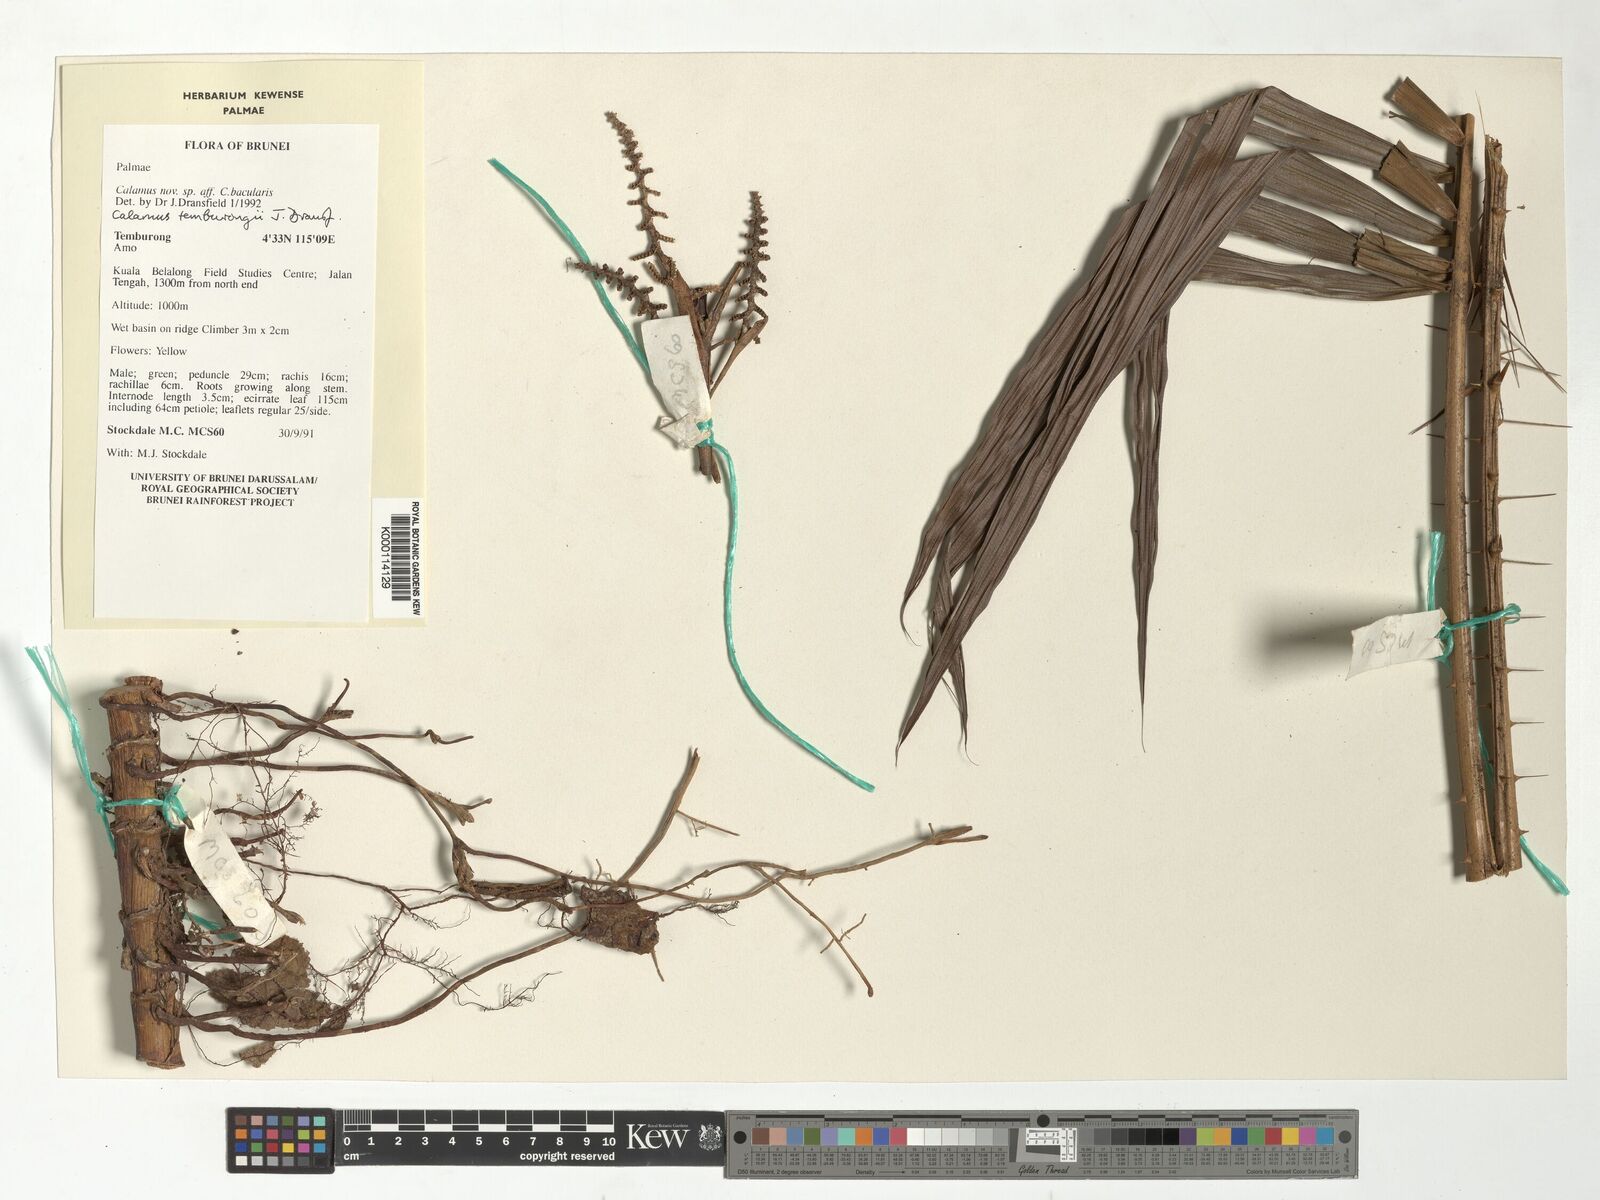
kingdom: Plantae
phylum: Tracheophyta
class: Liliopsida
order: Arecales
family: Arecaceae
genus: Calamus
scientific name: Calamus acanthochlamys
